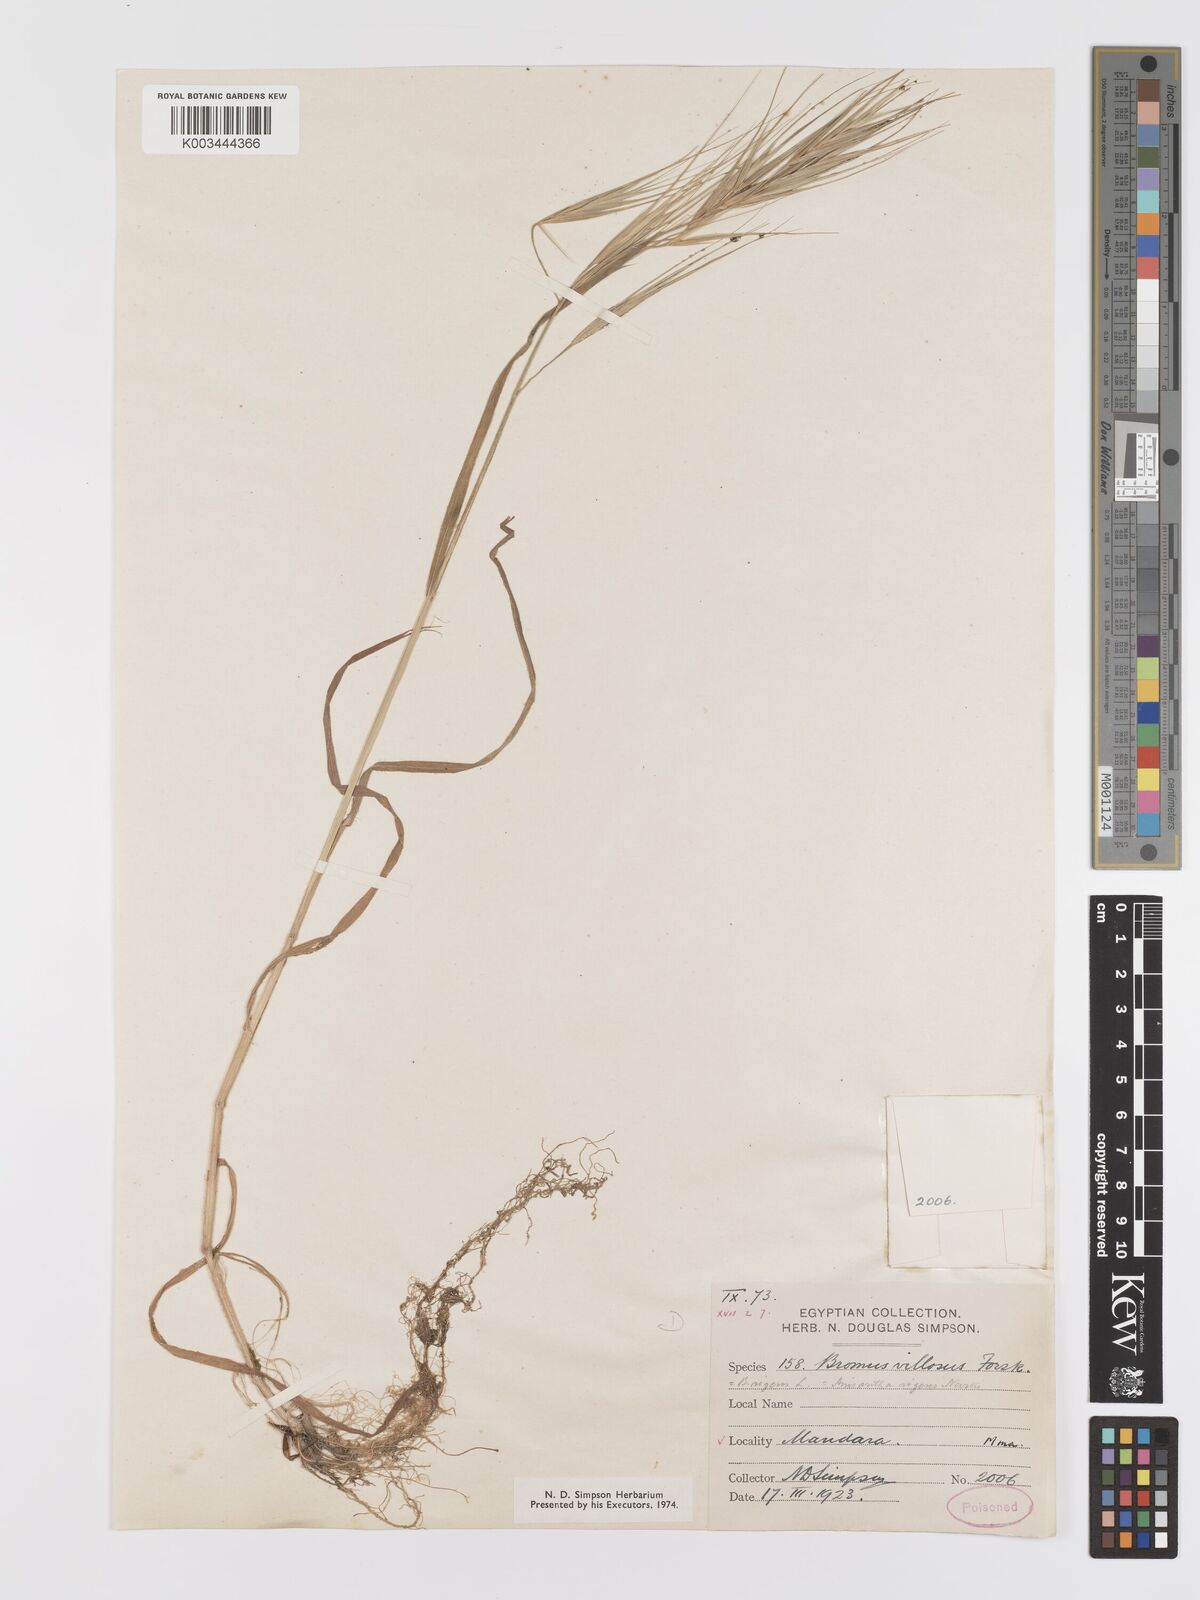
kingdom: Plantae
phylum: Tracheophyta
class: Liliopsida
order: Poales
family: Poaceae
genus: Bromus
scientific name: Bromus diandrus
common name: Ripgut brome
